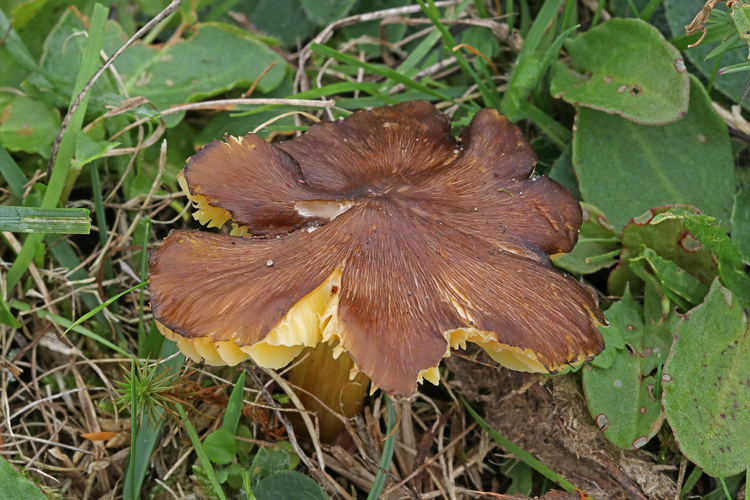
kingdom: Fungi
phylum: Basidiomycota
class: Agaricomycetes
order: Agaricales
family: Hygrophoraceae
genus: Hygrocybe
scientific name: Hygrocybe spadicea
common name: daddelbrun vokshat
